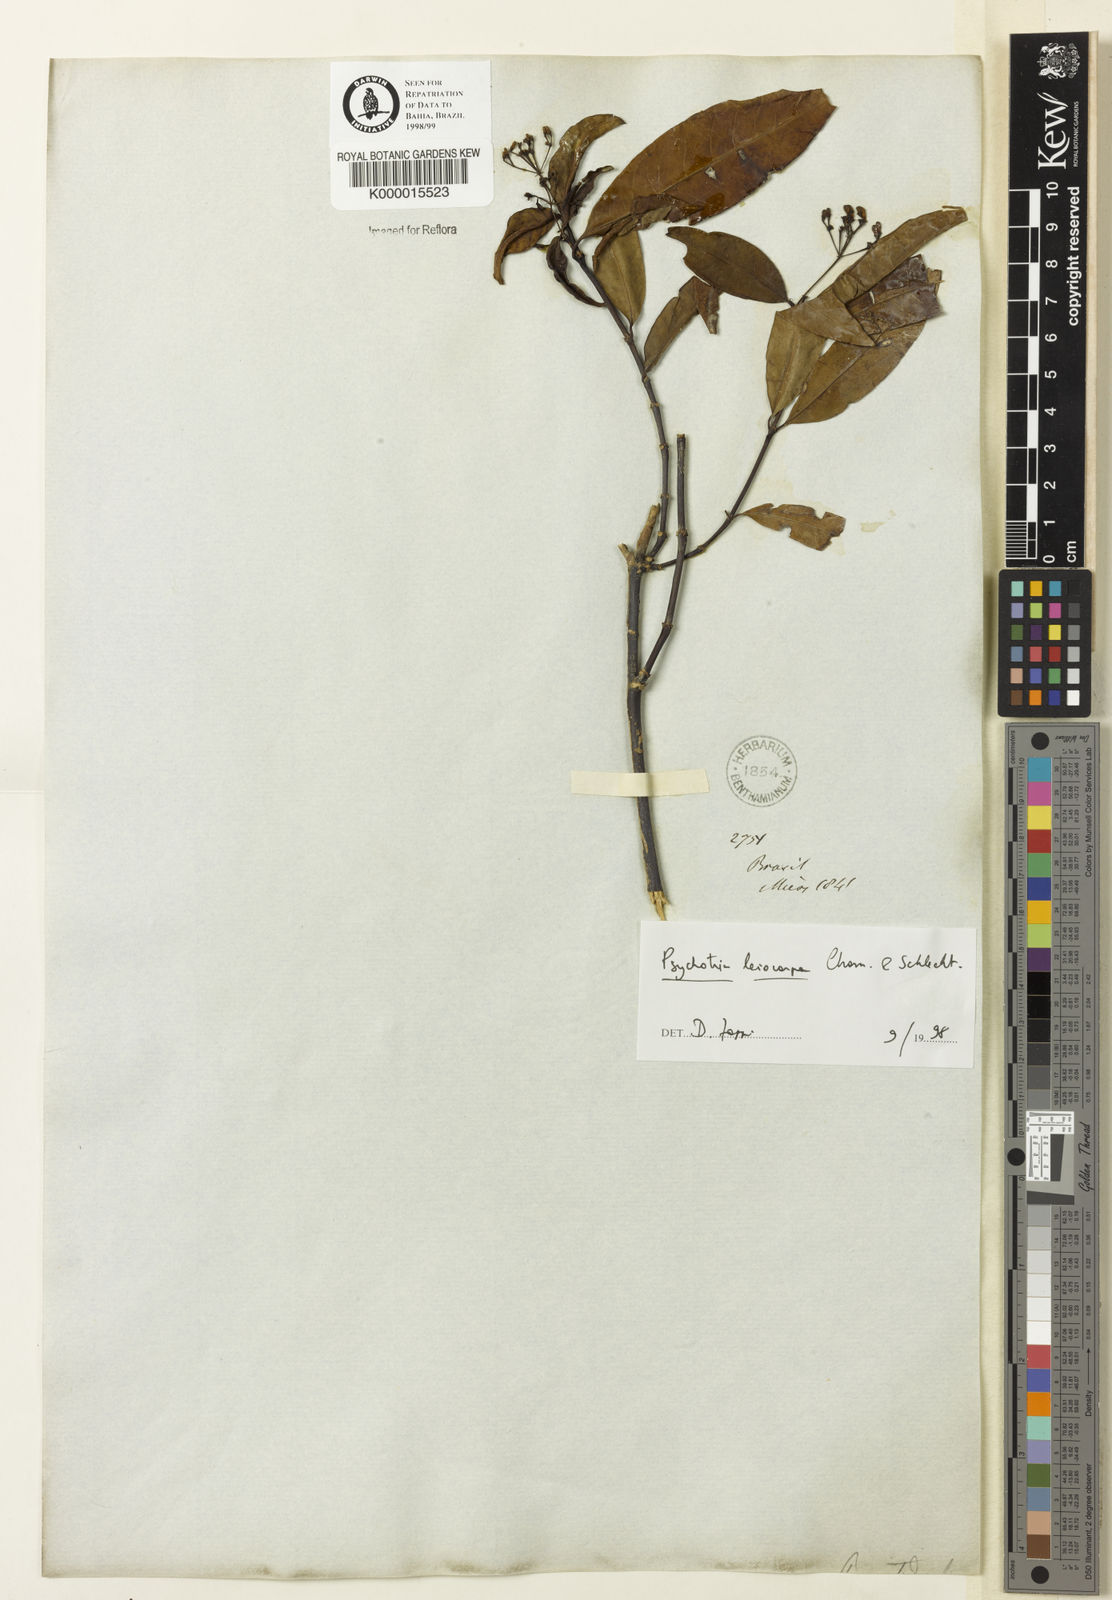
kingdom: Plantae
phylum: Tracheophyta
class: Magnoliopsida
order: Gentianales
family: Rubiaceae
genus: Psychotria
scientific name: Psychotria leiocarpa
